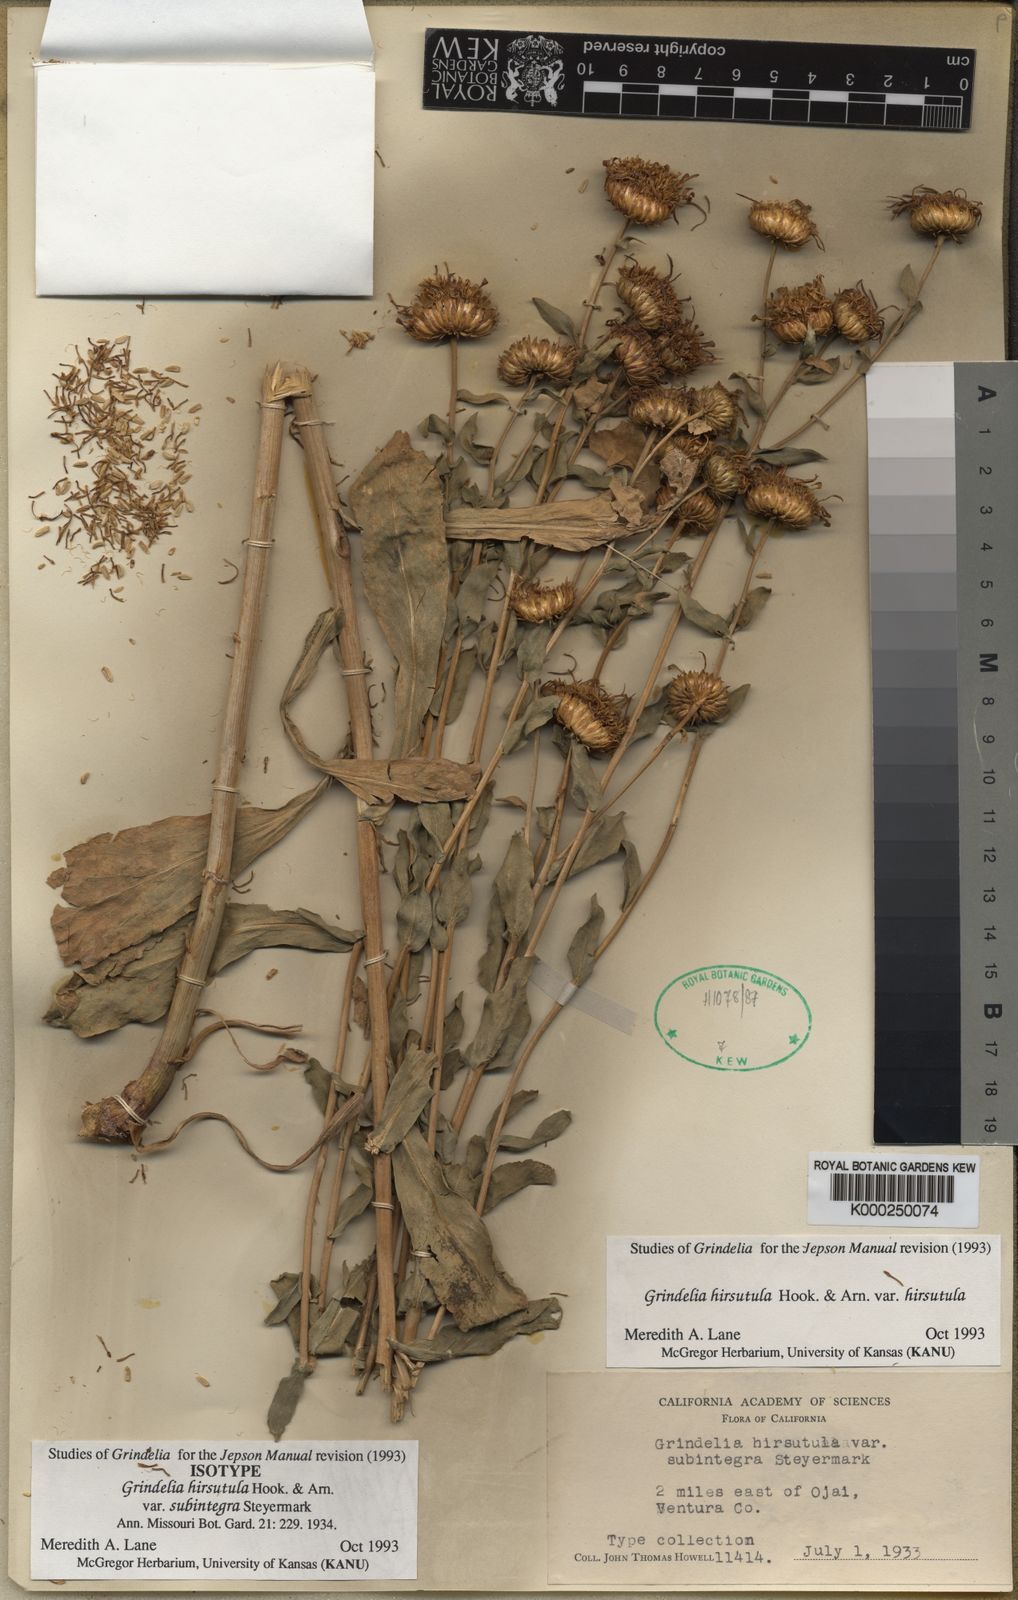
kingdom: Plantae
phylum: Tracheophyta
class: Magnoliopsida
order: Asterales
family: Asteraceae
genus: Grindelia
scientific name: Grindelia hirsutula
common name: Hairy gumweed
